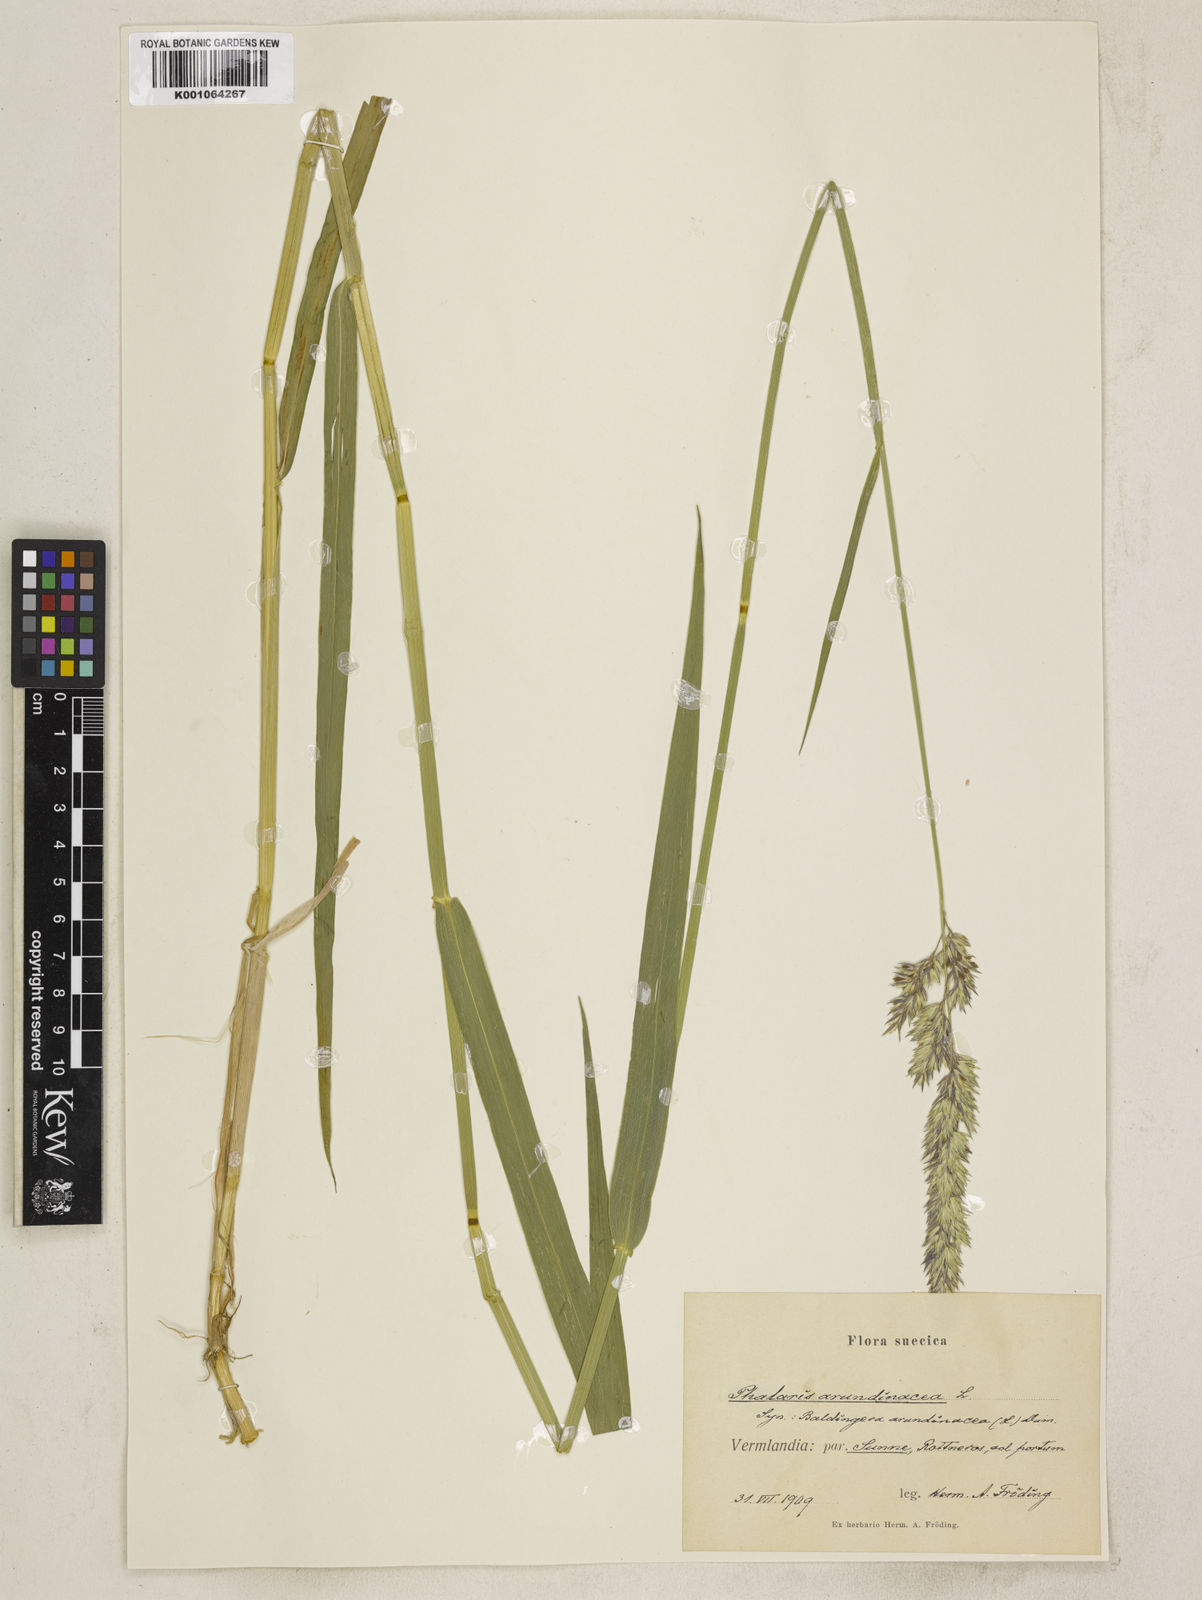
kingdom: Plantae
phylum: Tracheophyta
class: Liliopsida
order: Poales
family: Poaceae
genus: Phalaris
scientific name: Phalaris arundinacea
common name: Reed canary-grass
